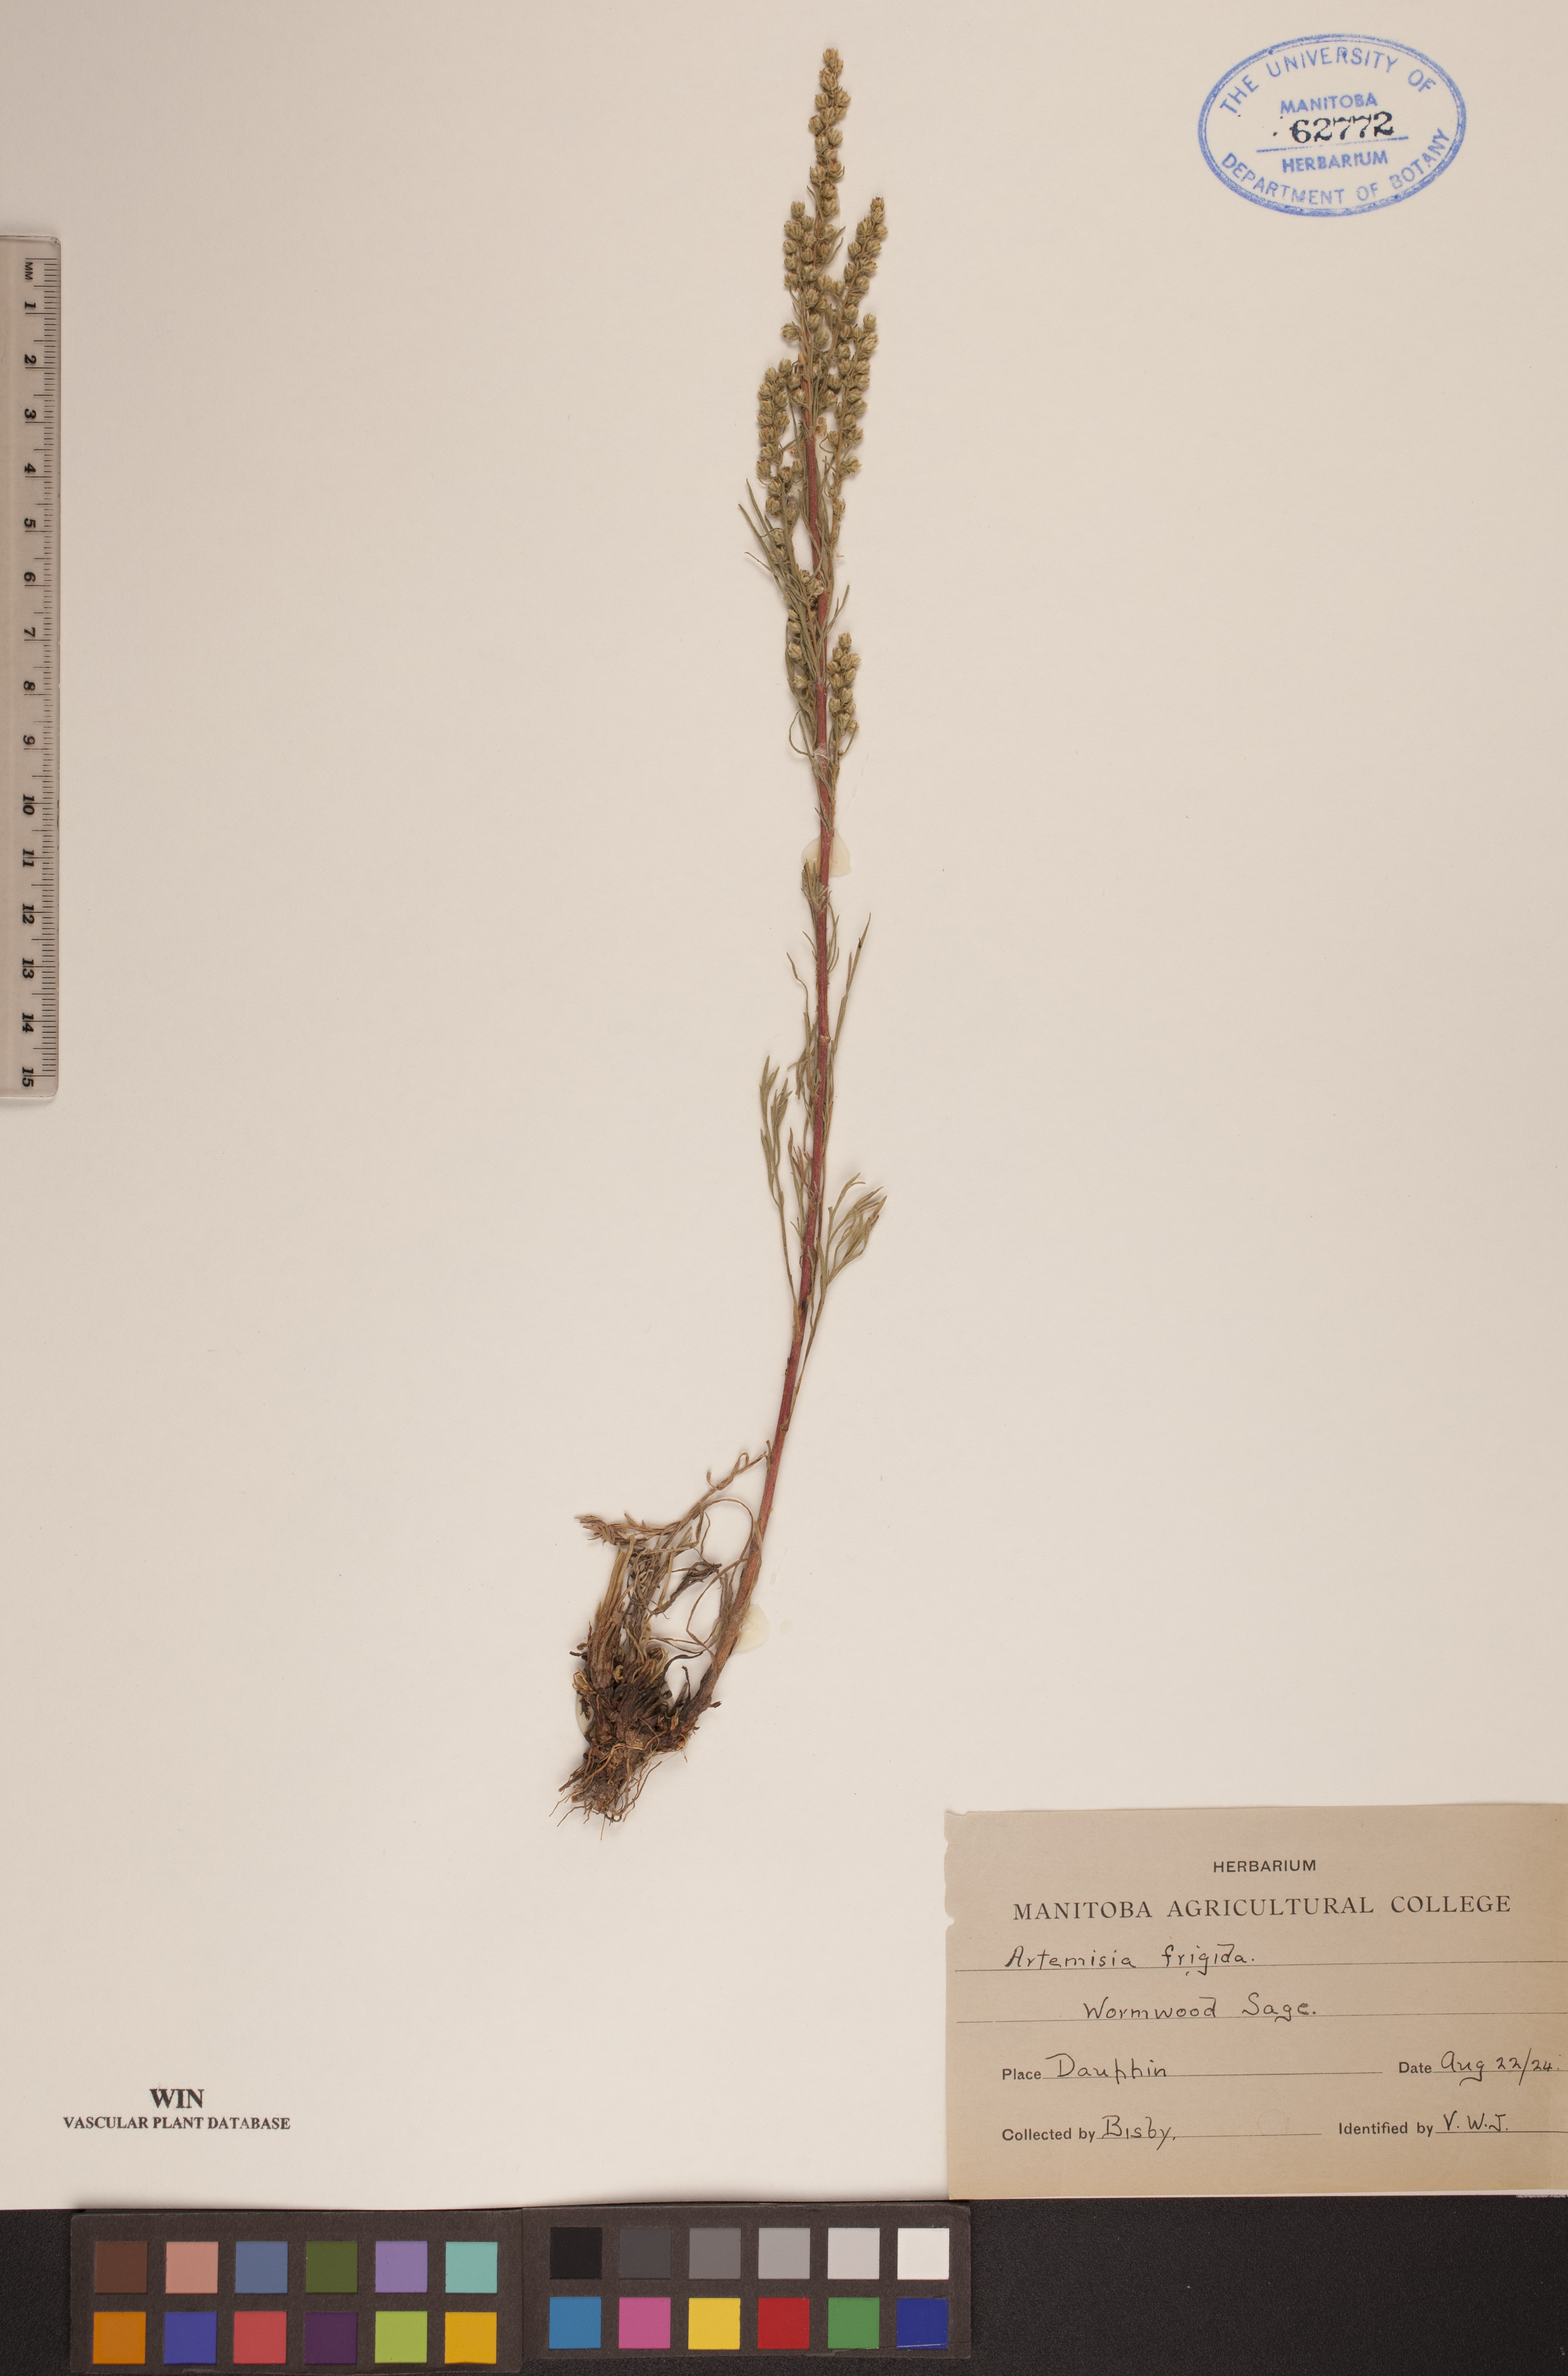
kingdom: Plantae
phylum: Tracheophyta
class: Magnoliopsida
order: Asterales
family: Asteraceae
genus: Artemisia
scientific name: Artemisia frigida
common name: Prairie sagewort
